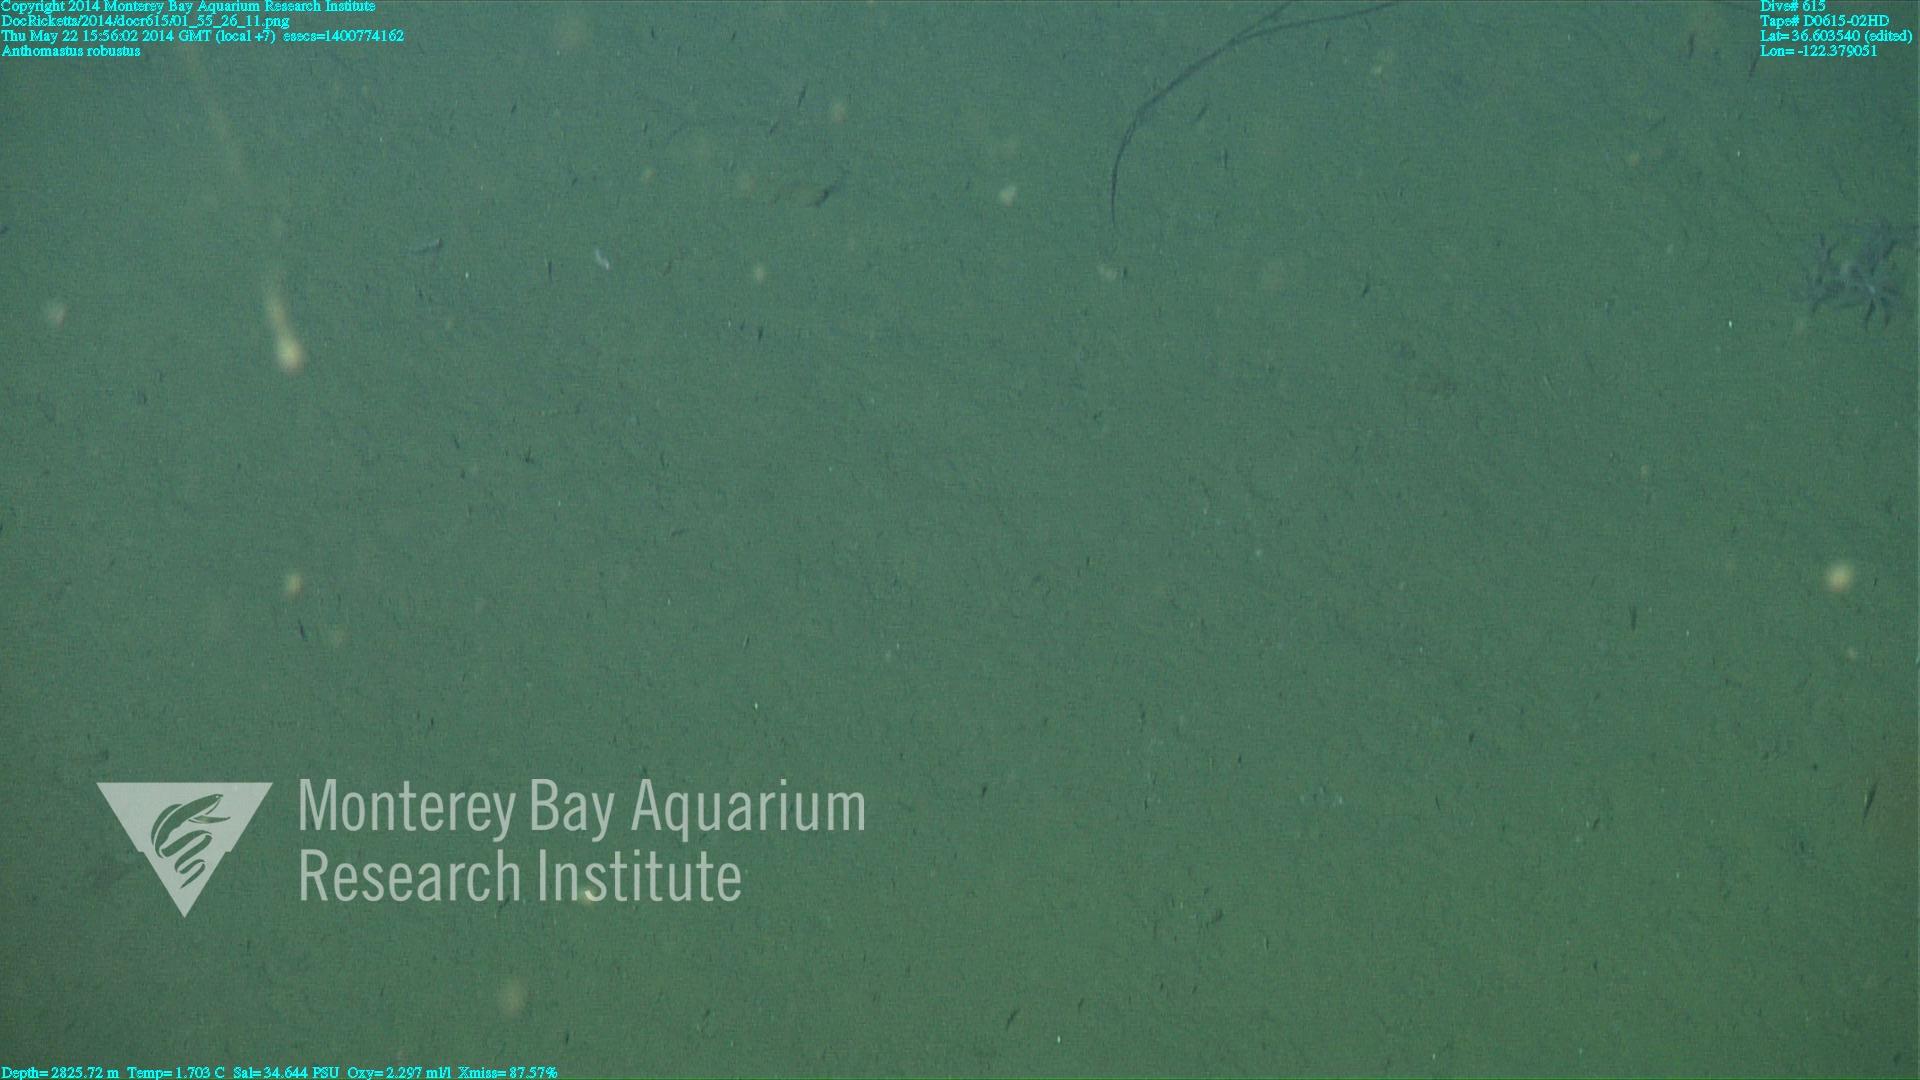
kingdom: Animalia
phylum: Cnidaria
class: Anthozoa
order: Scleralcyonacea
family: Coralliidae
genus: Bathyalcyon
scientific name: Bathyalcyon robustum
